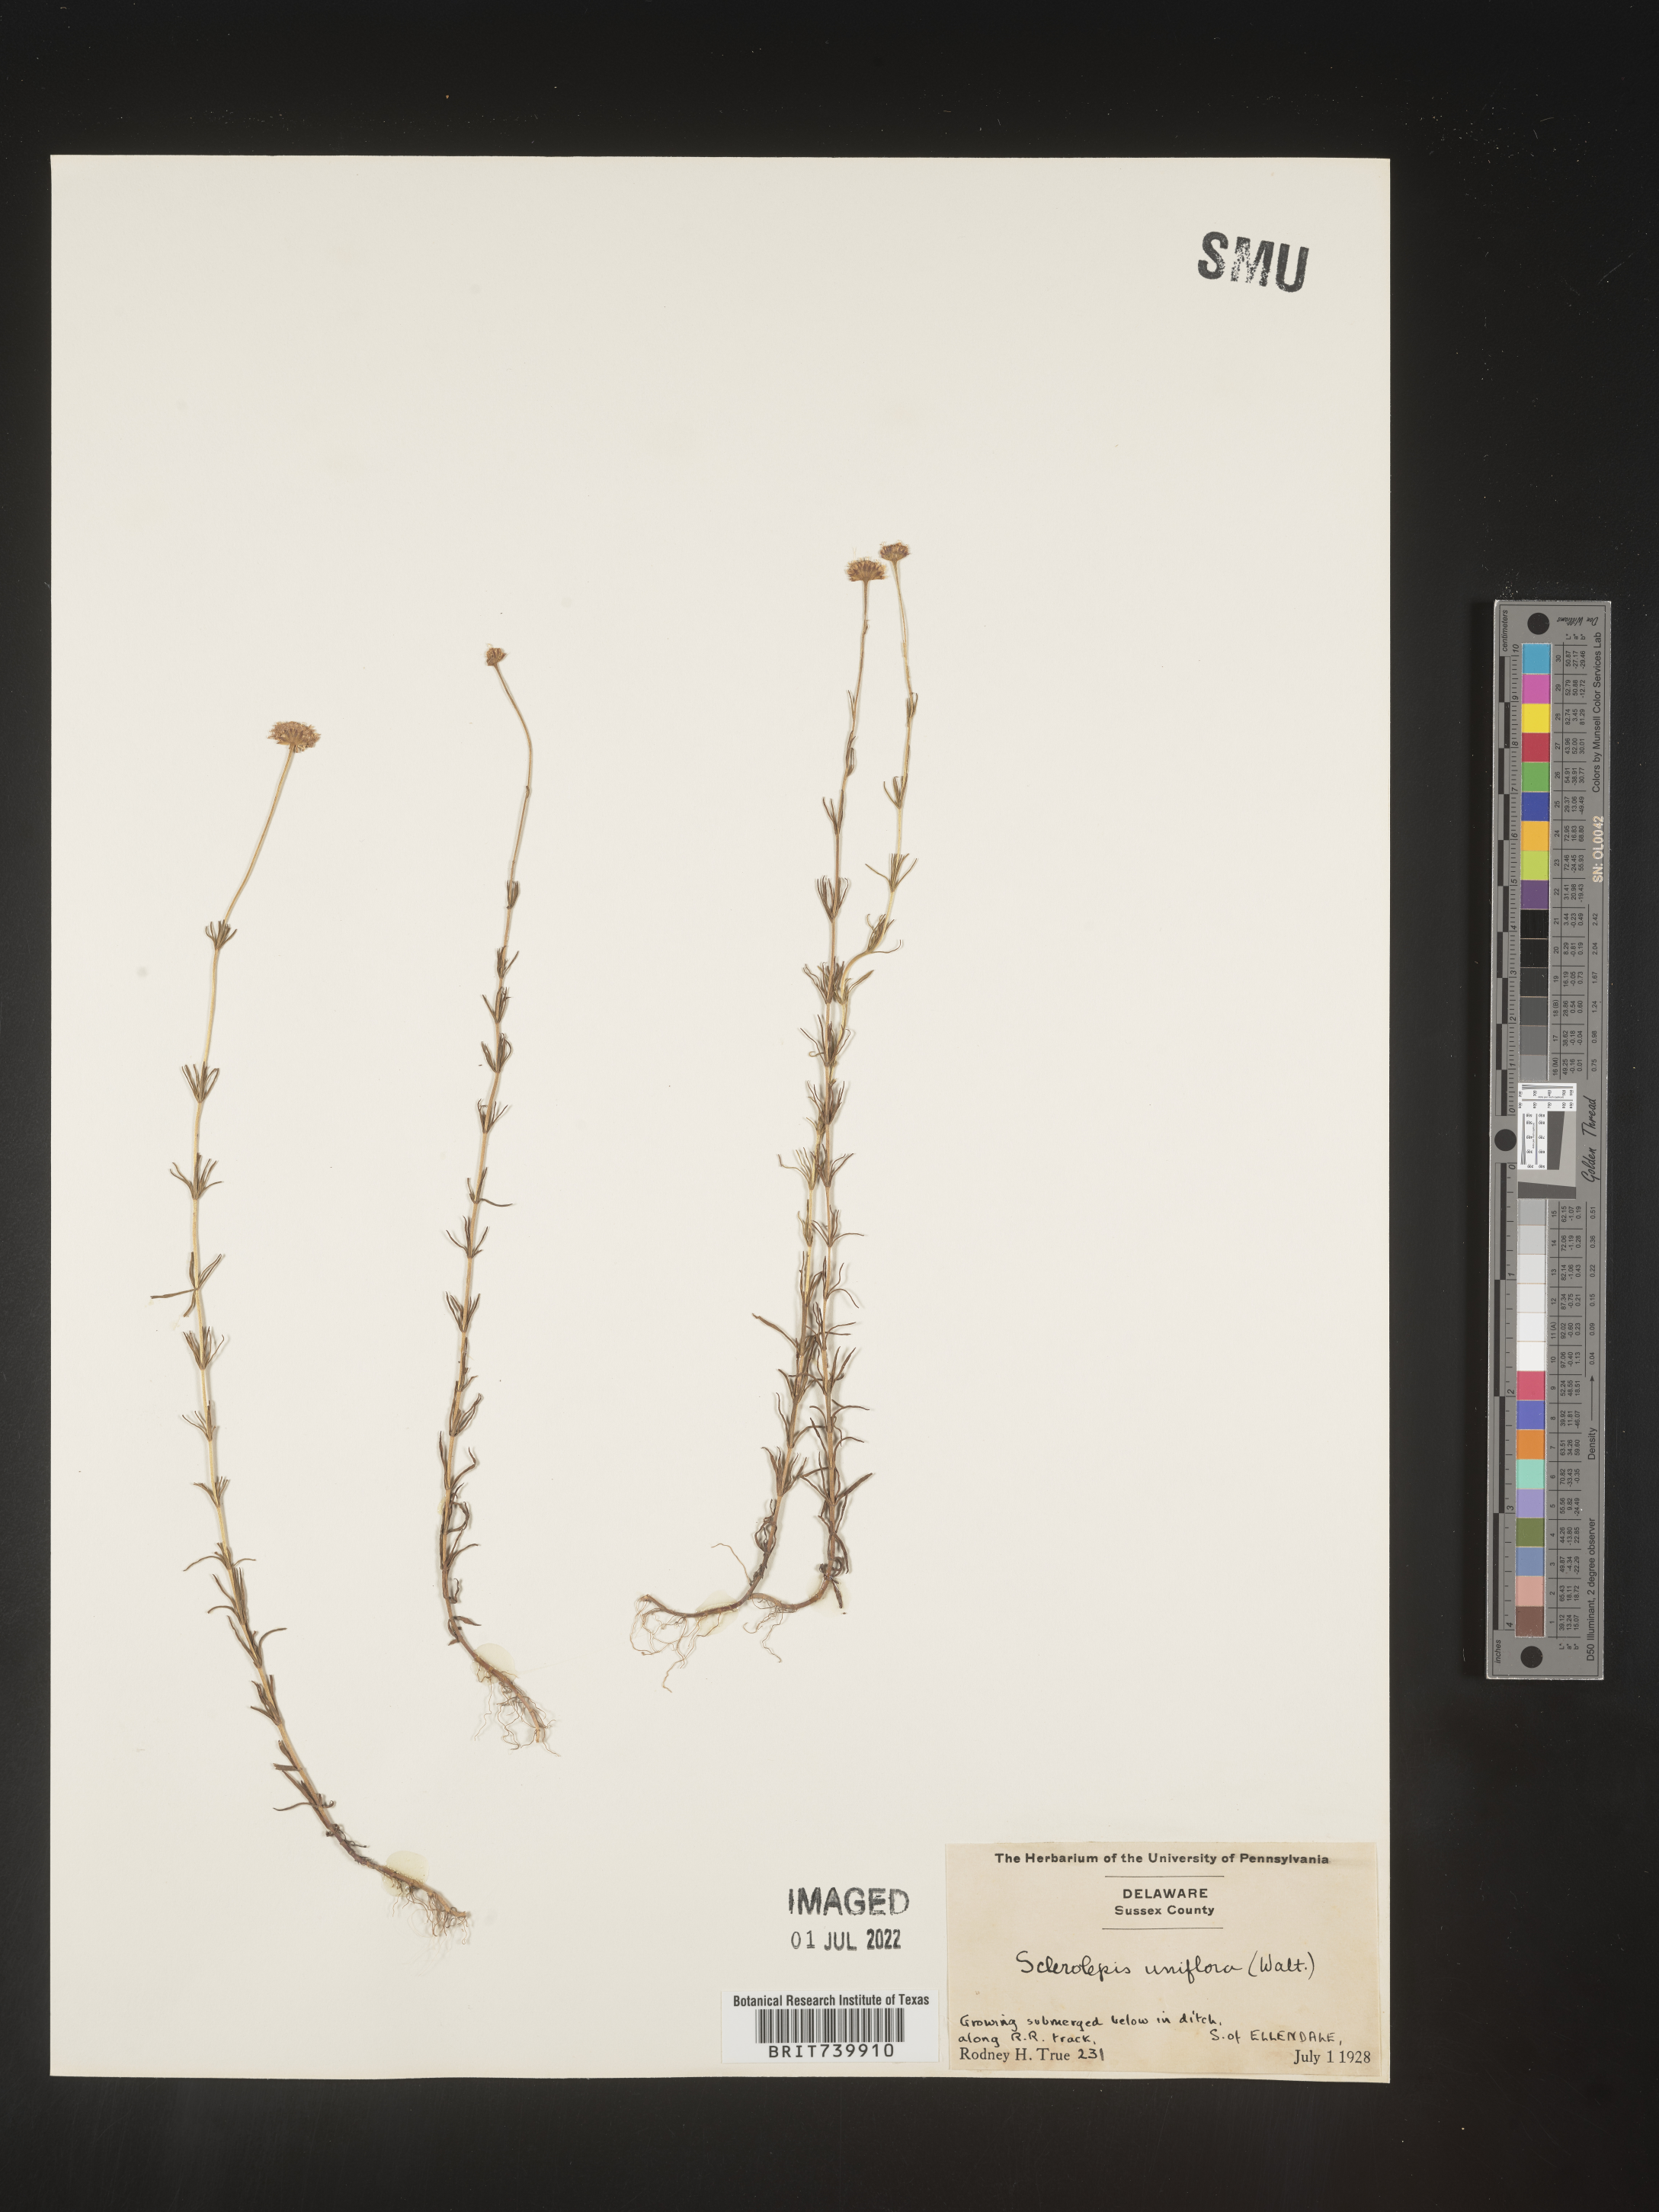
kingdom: Plantae
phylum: Tracheophyta
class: Magnoliopsida
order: Asterales
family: Asteraceae
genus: Sclerolepis
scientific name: Sclerolepis
